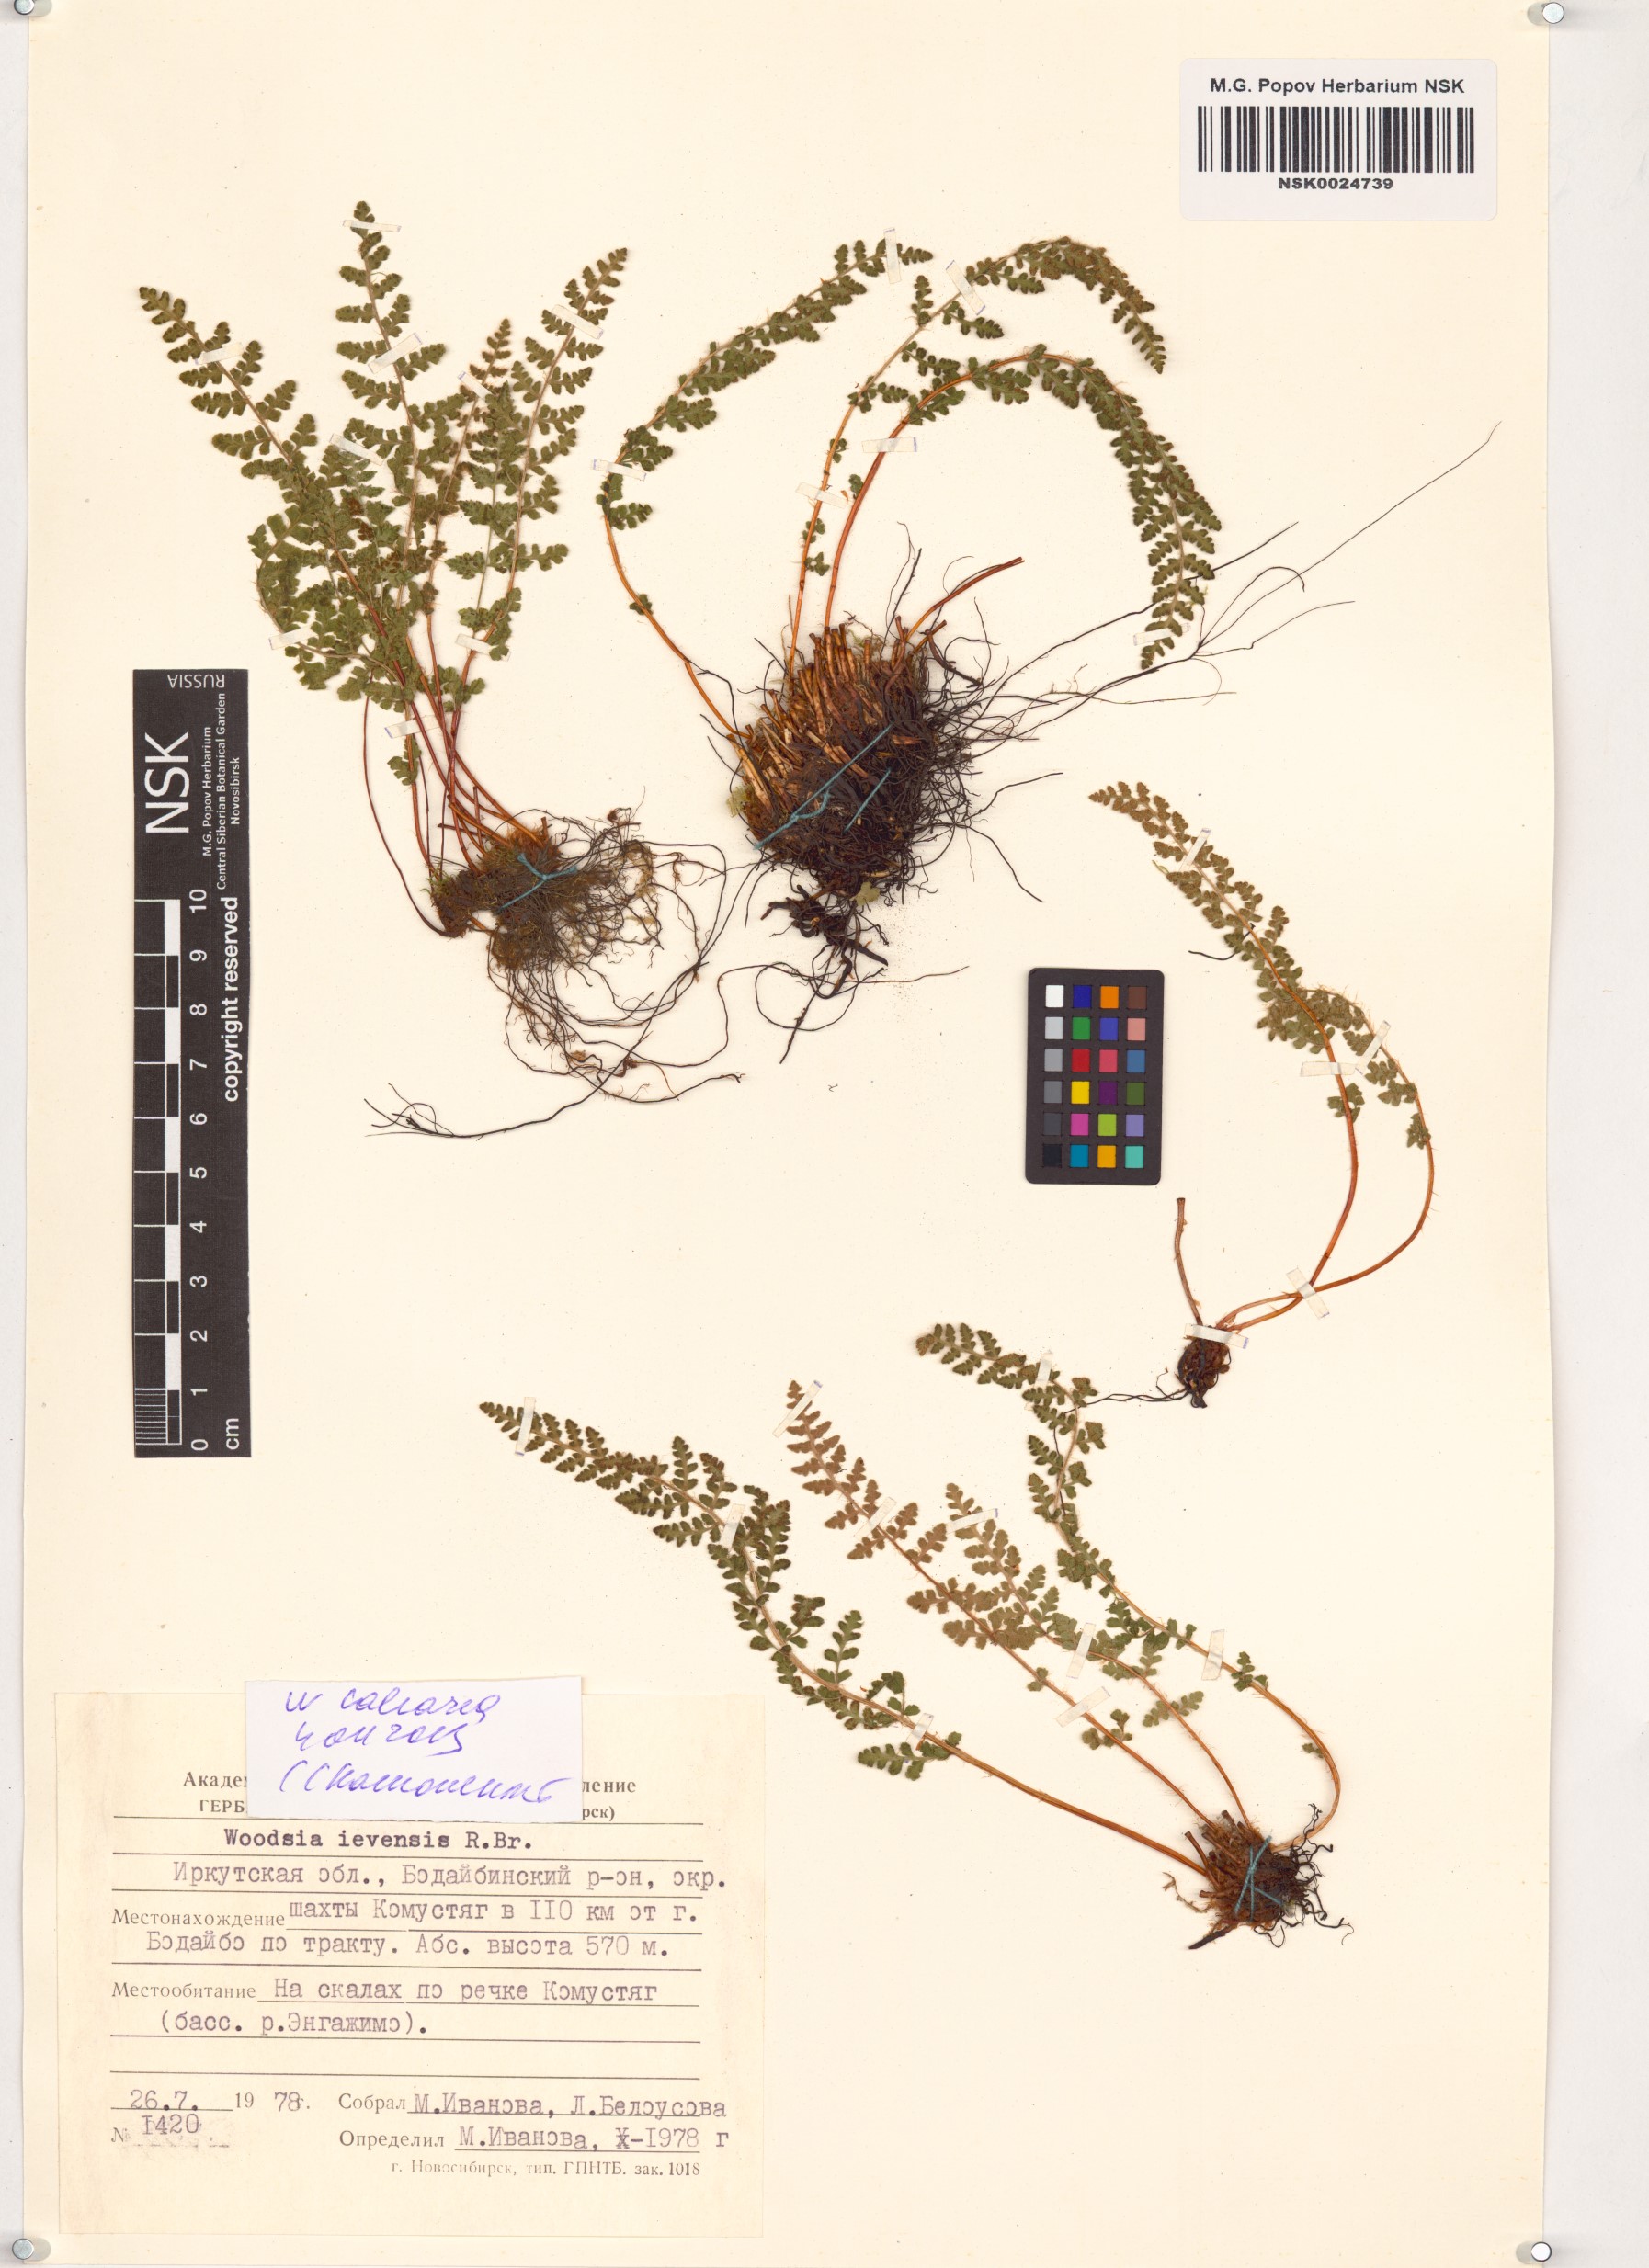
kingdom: Plantae
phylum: Tracheophyta
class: Polypodiopsida
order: Polypodiales
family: Woodsiaceae
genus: Woodsia
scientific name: Woodsia calcarea
